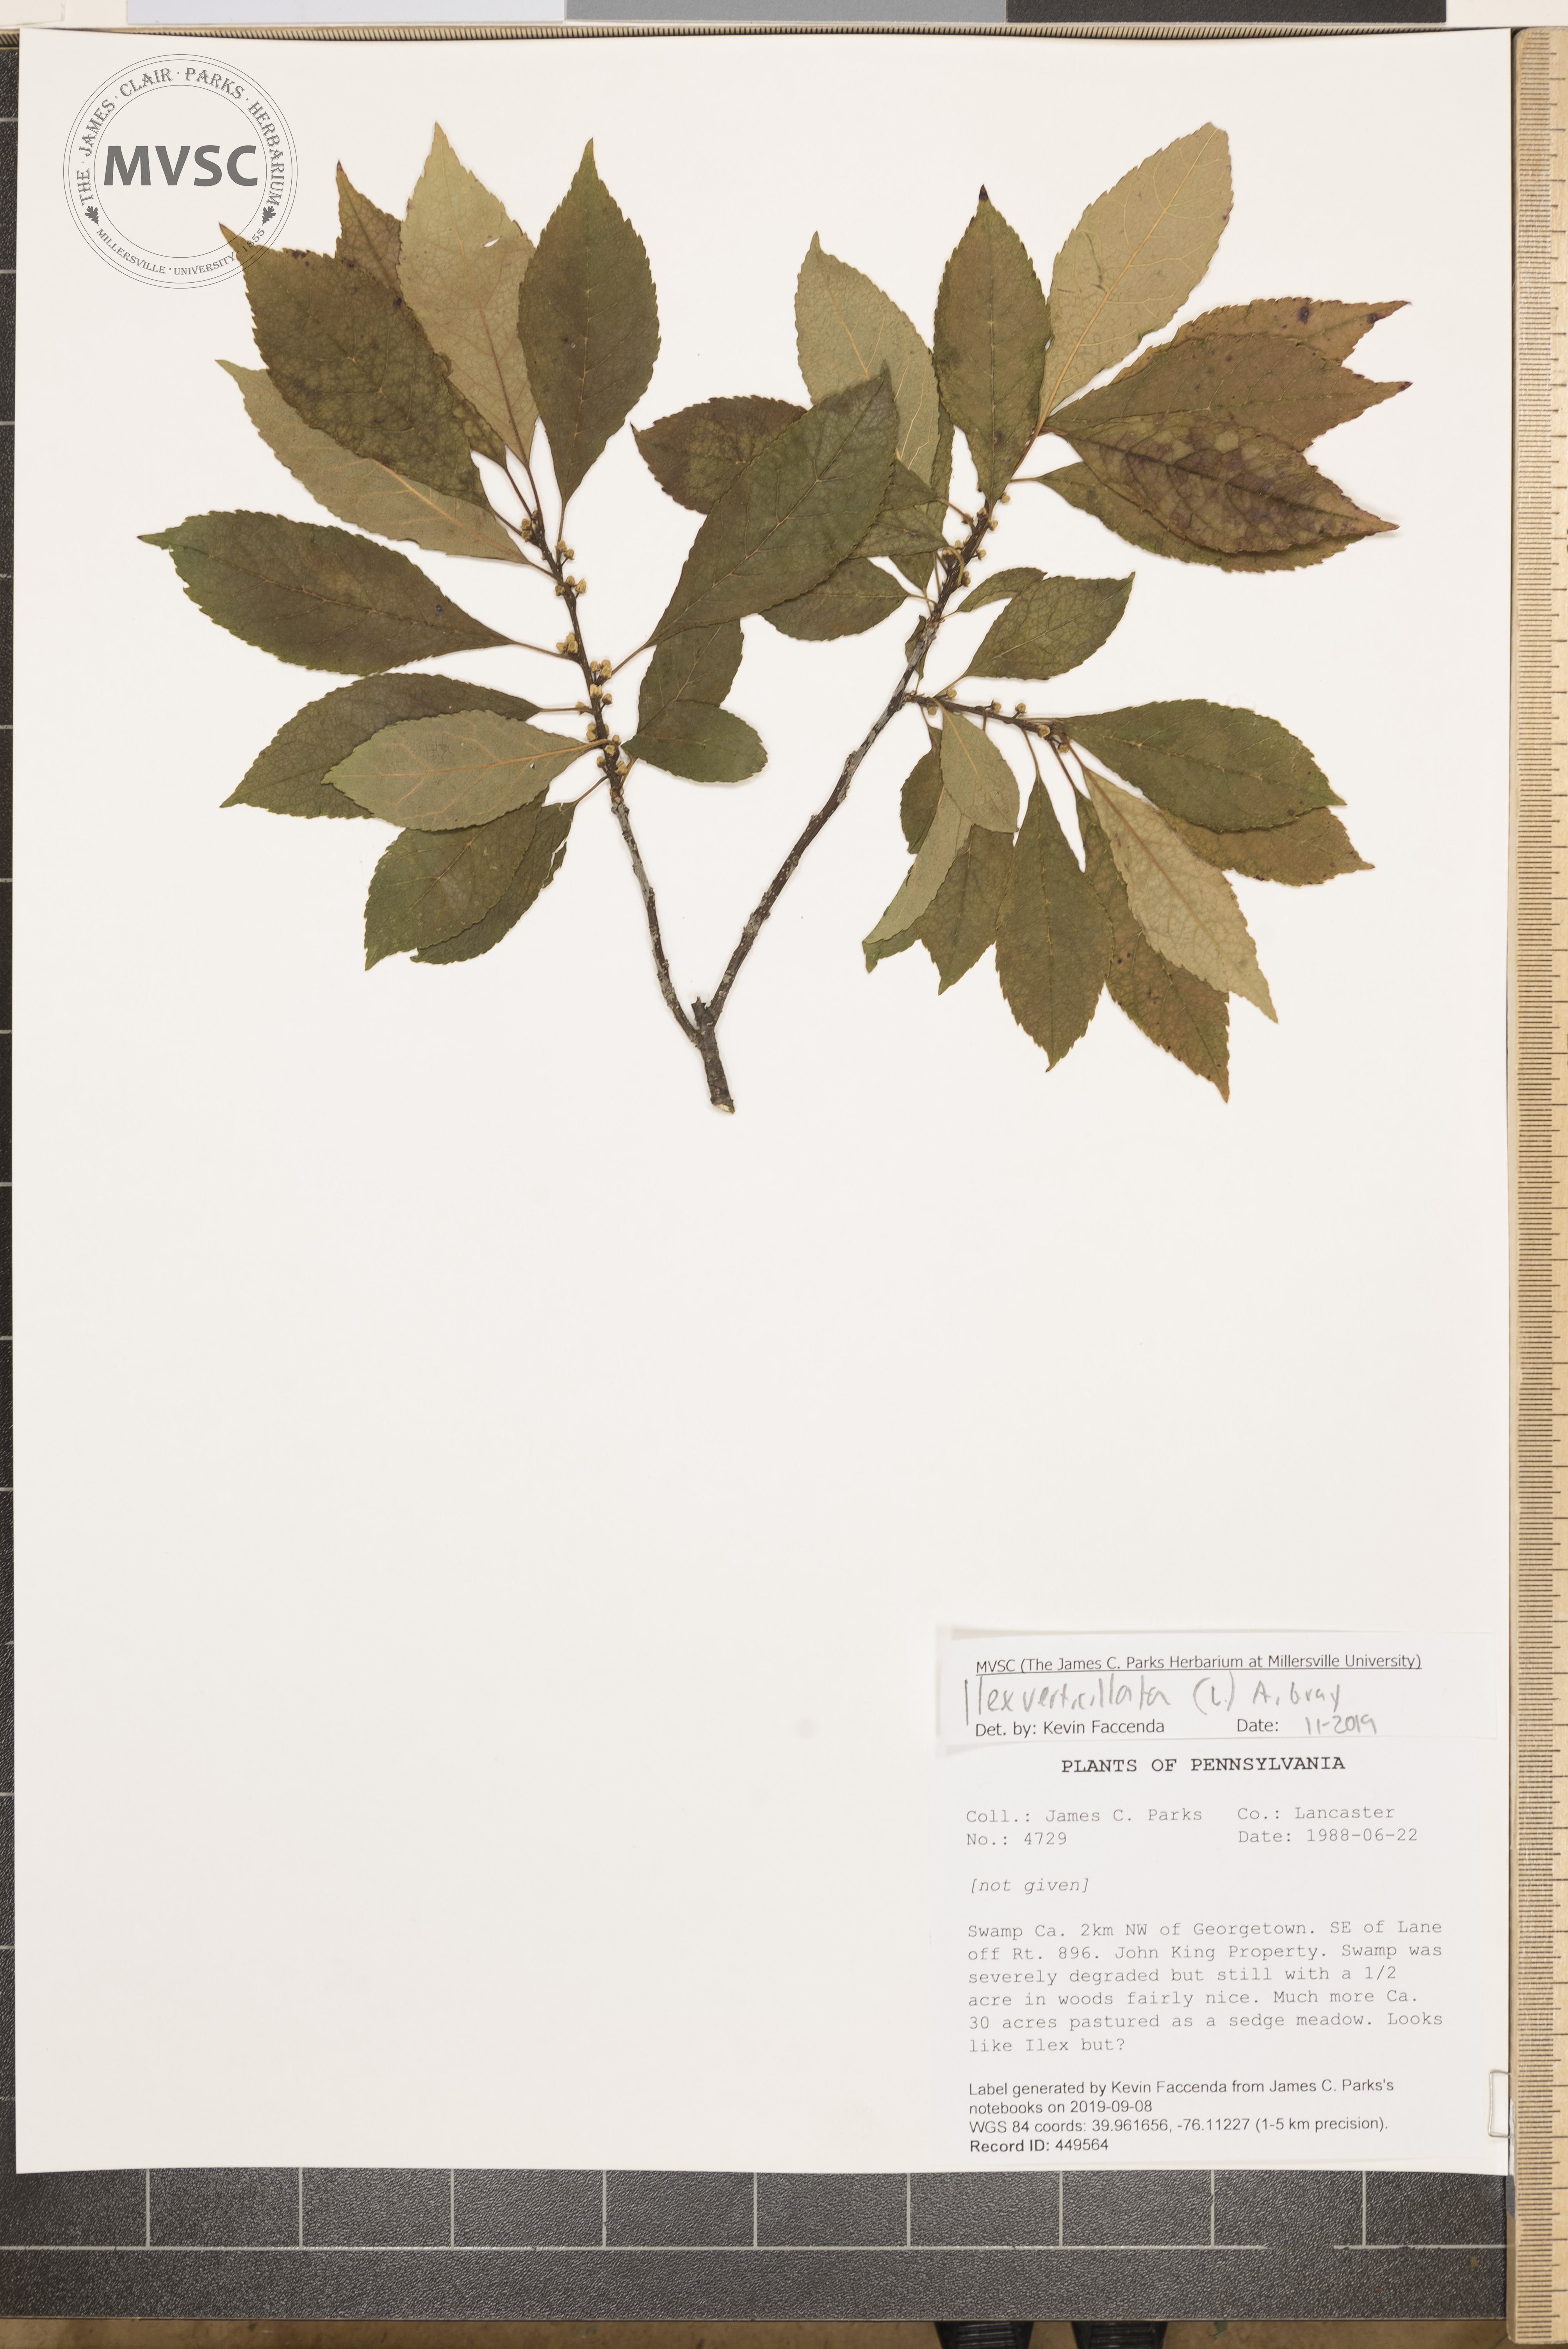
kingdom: Plantae
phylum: Tracheophyta
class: Magnoliopsida
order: Aquifoliales
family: Aquifoliaceae
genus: Ilex
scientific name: Ilex verticillata
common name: Virginia winterberry
